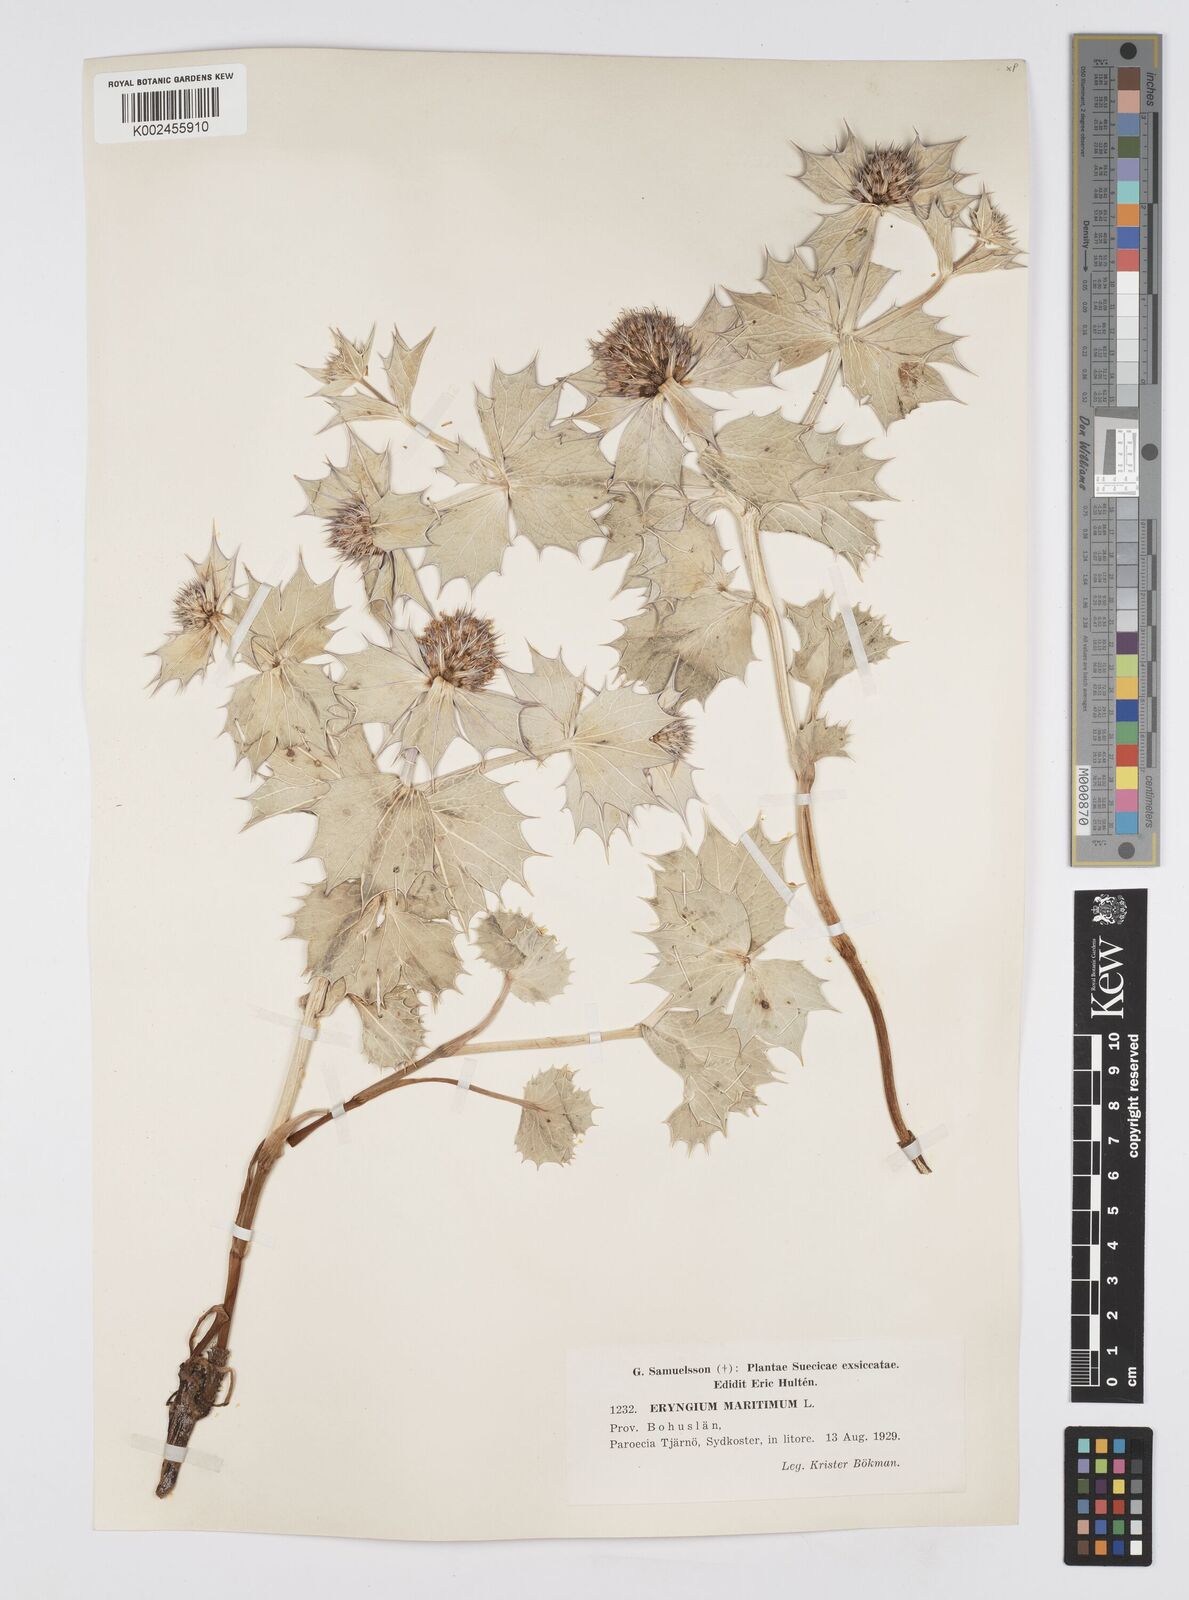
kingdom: Plantae
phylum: Tracheophyta
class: Magnoliopsida
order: Apiales
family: Apiaceae
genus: Eryngium
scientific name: Eryngium maritimum
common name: Sea-holly
